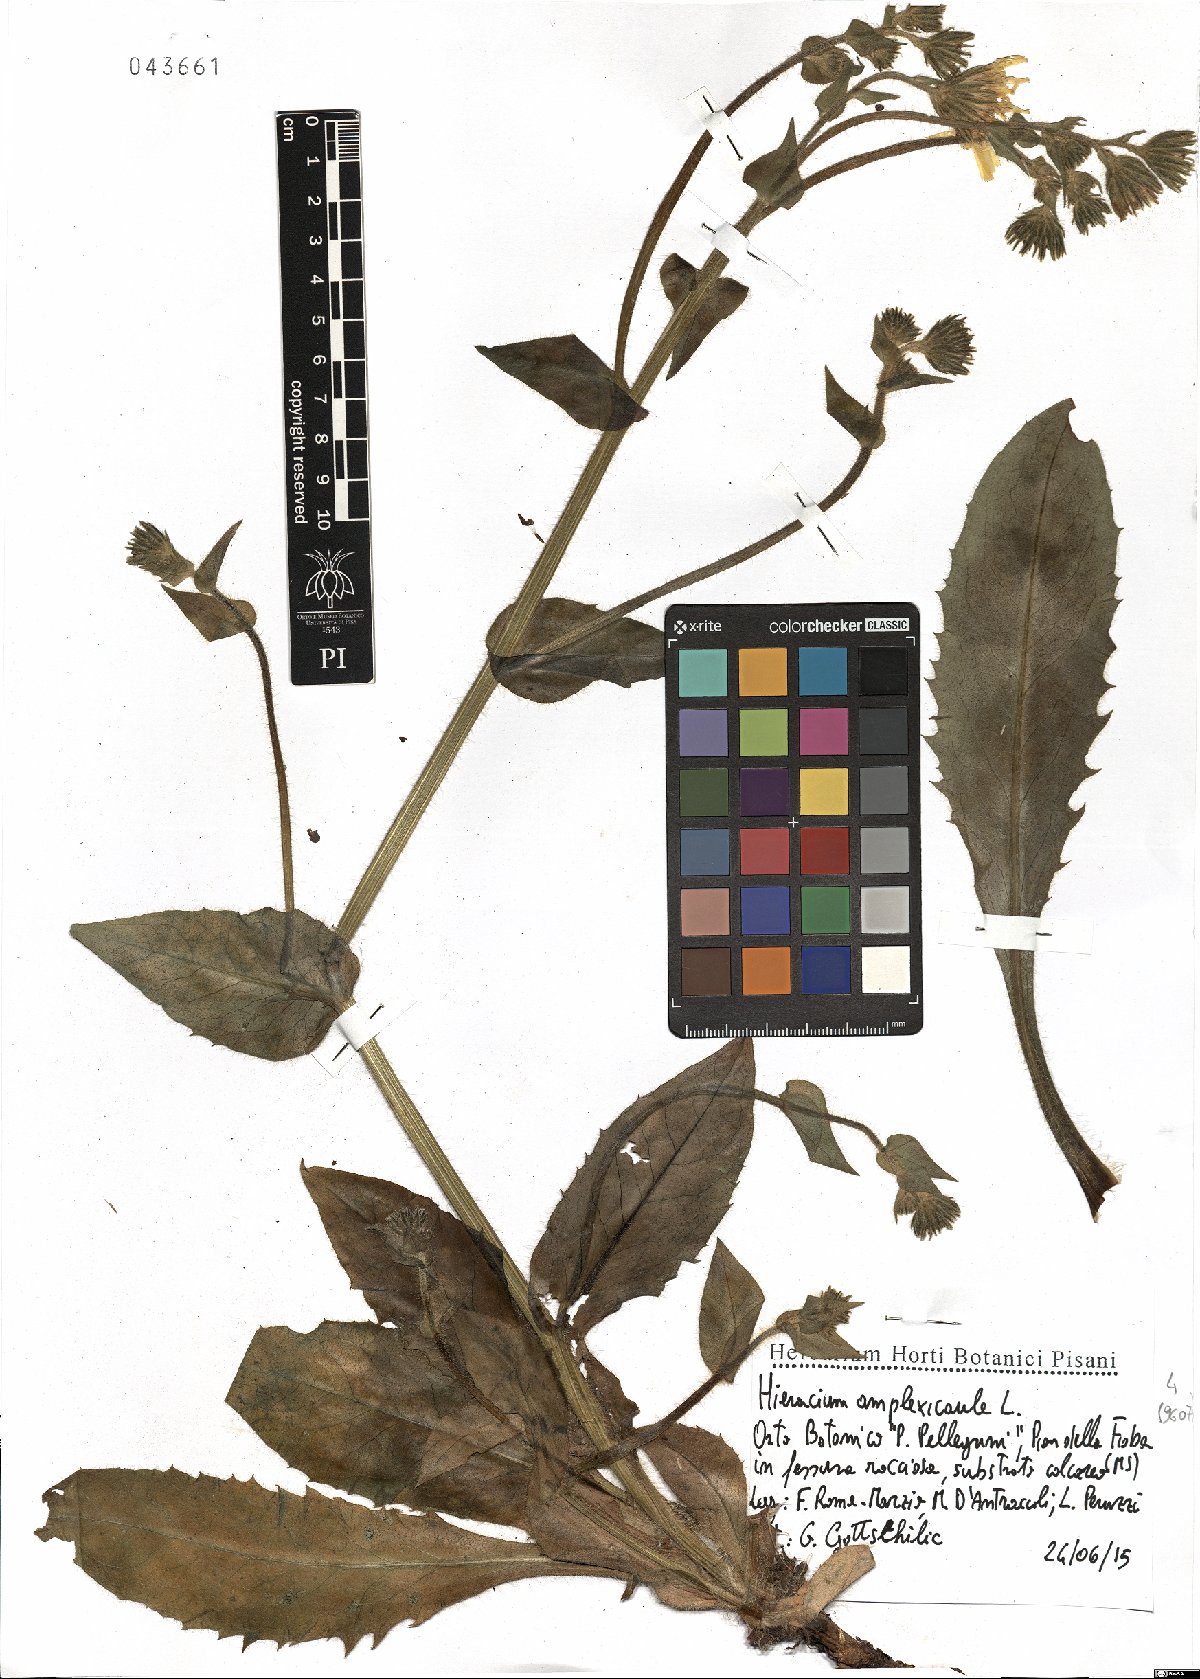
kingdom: Plantae
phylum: Tracheophyta
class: Magnoliopsida
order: Asterales
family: Asteraceae
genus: Hieracium
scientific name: Hieracium amplexicaule
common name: Sticky hawkweed
